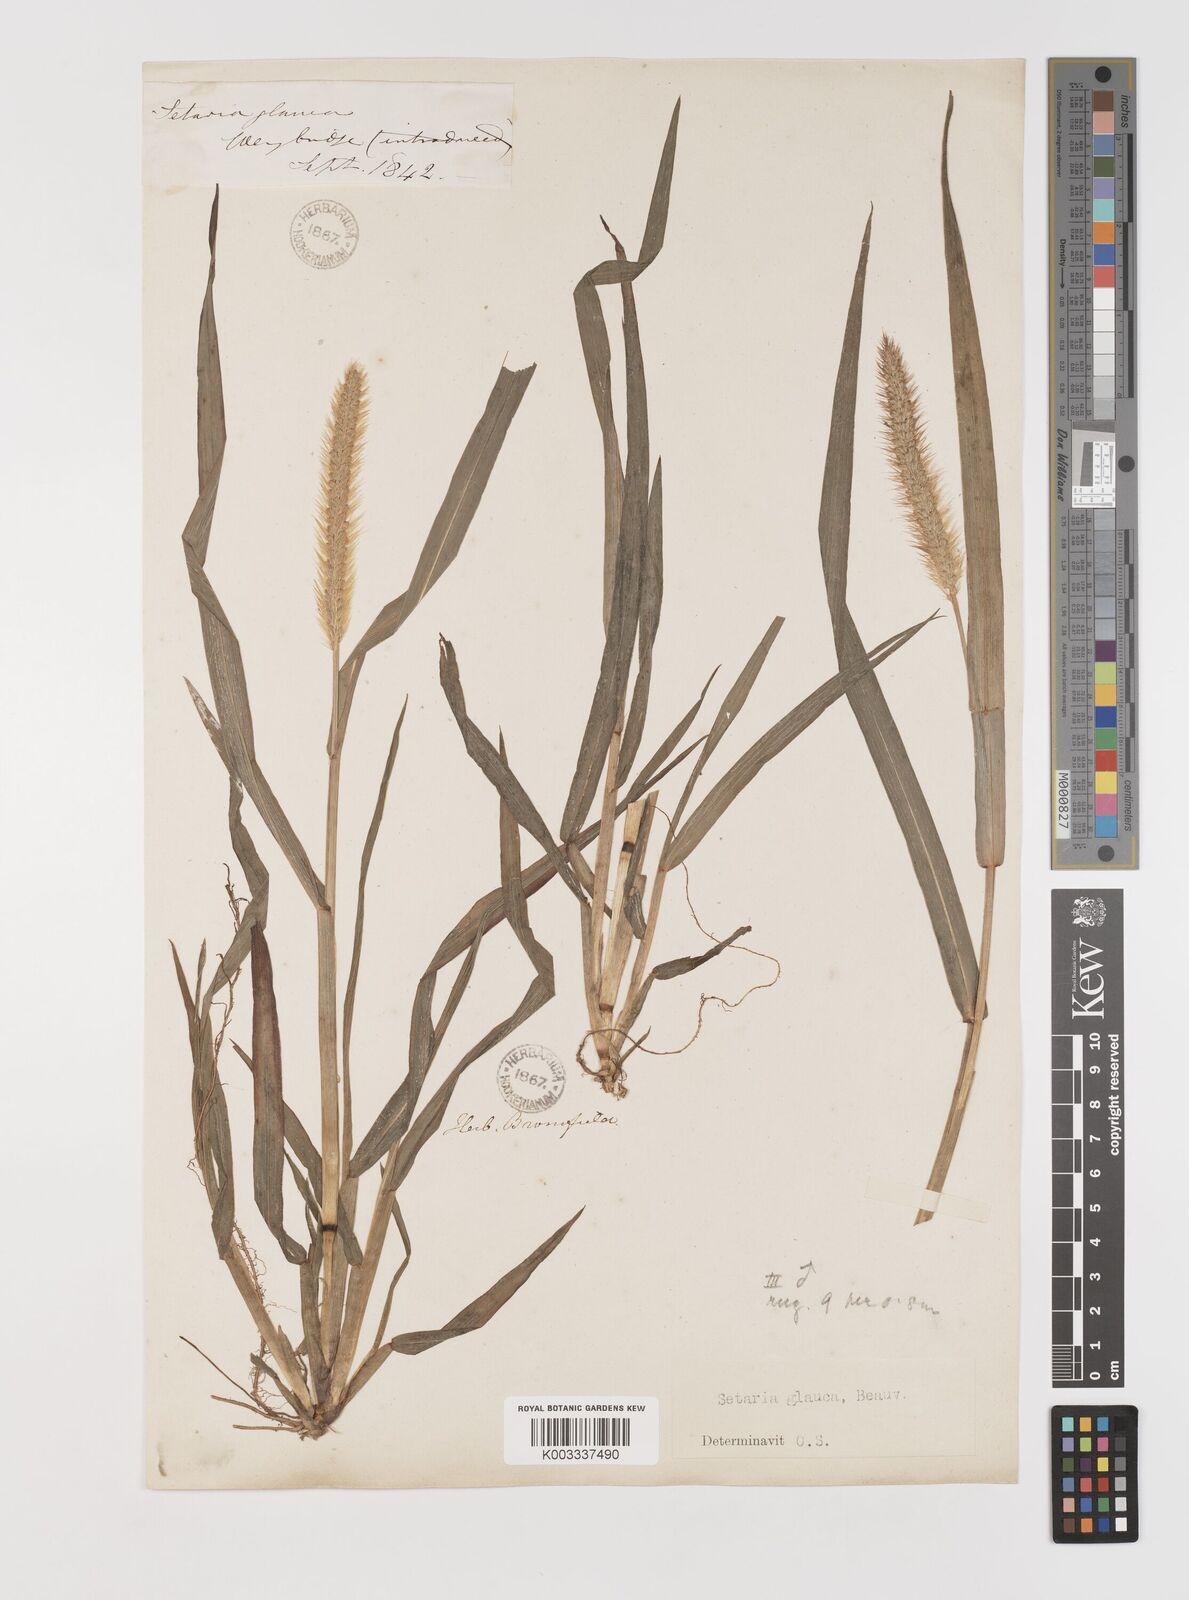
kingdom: Plantae
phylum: Tracheophyta
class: Liliopsida
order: Poales
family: Poaceae
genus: Setaria
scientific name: Setaria pumila
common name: Yellow bristle-grass
